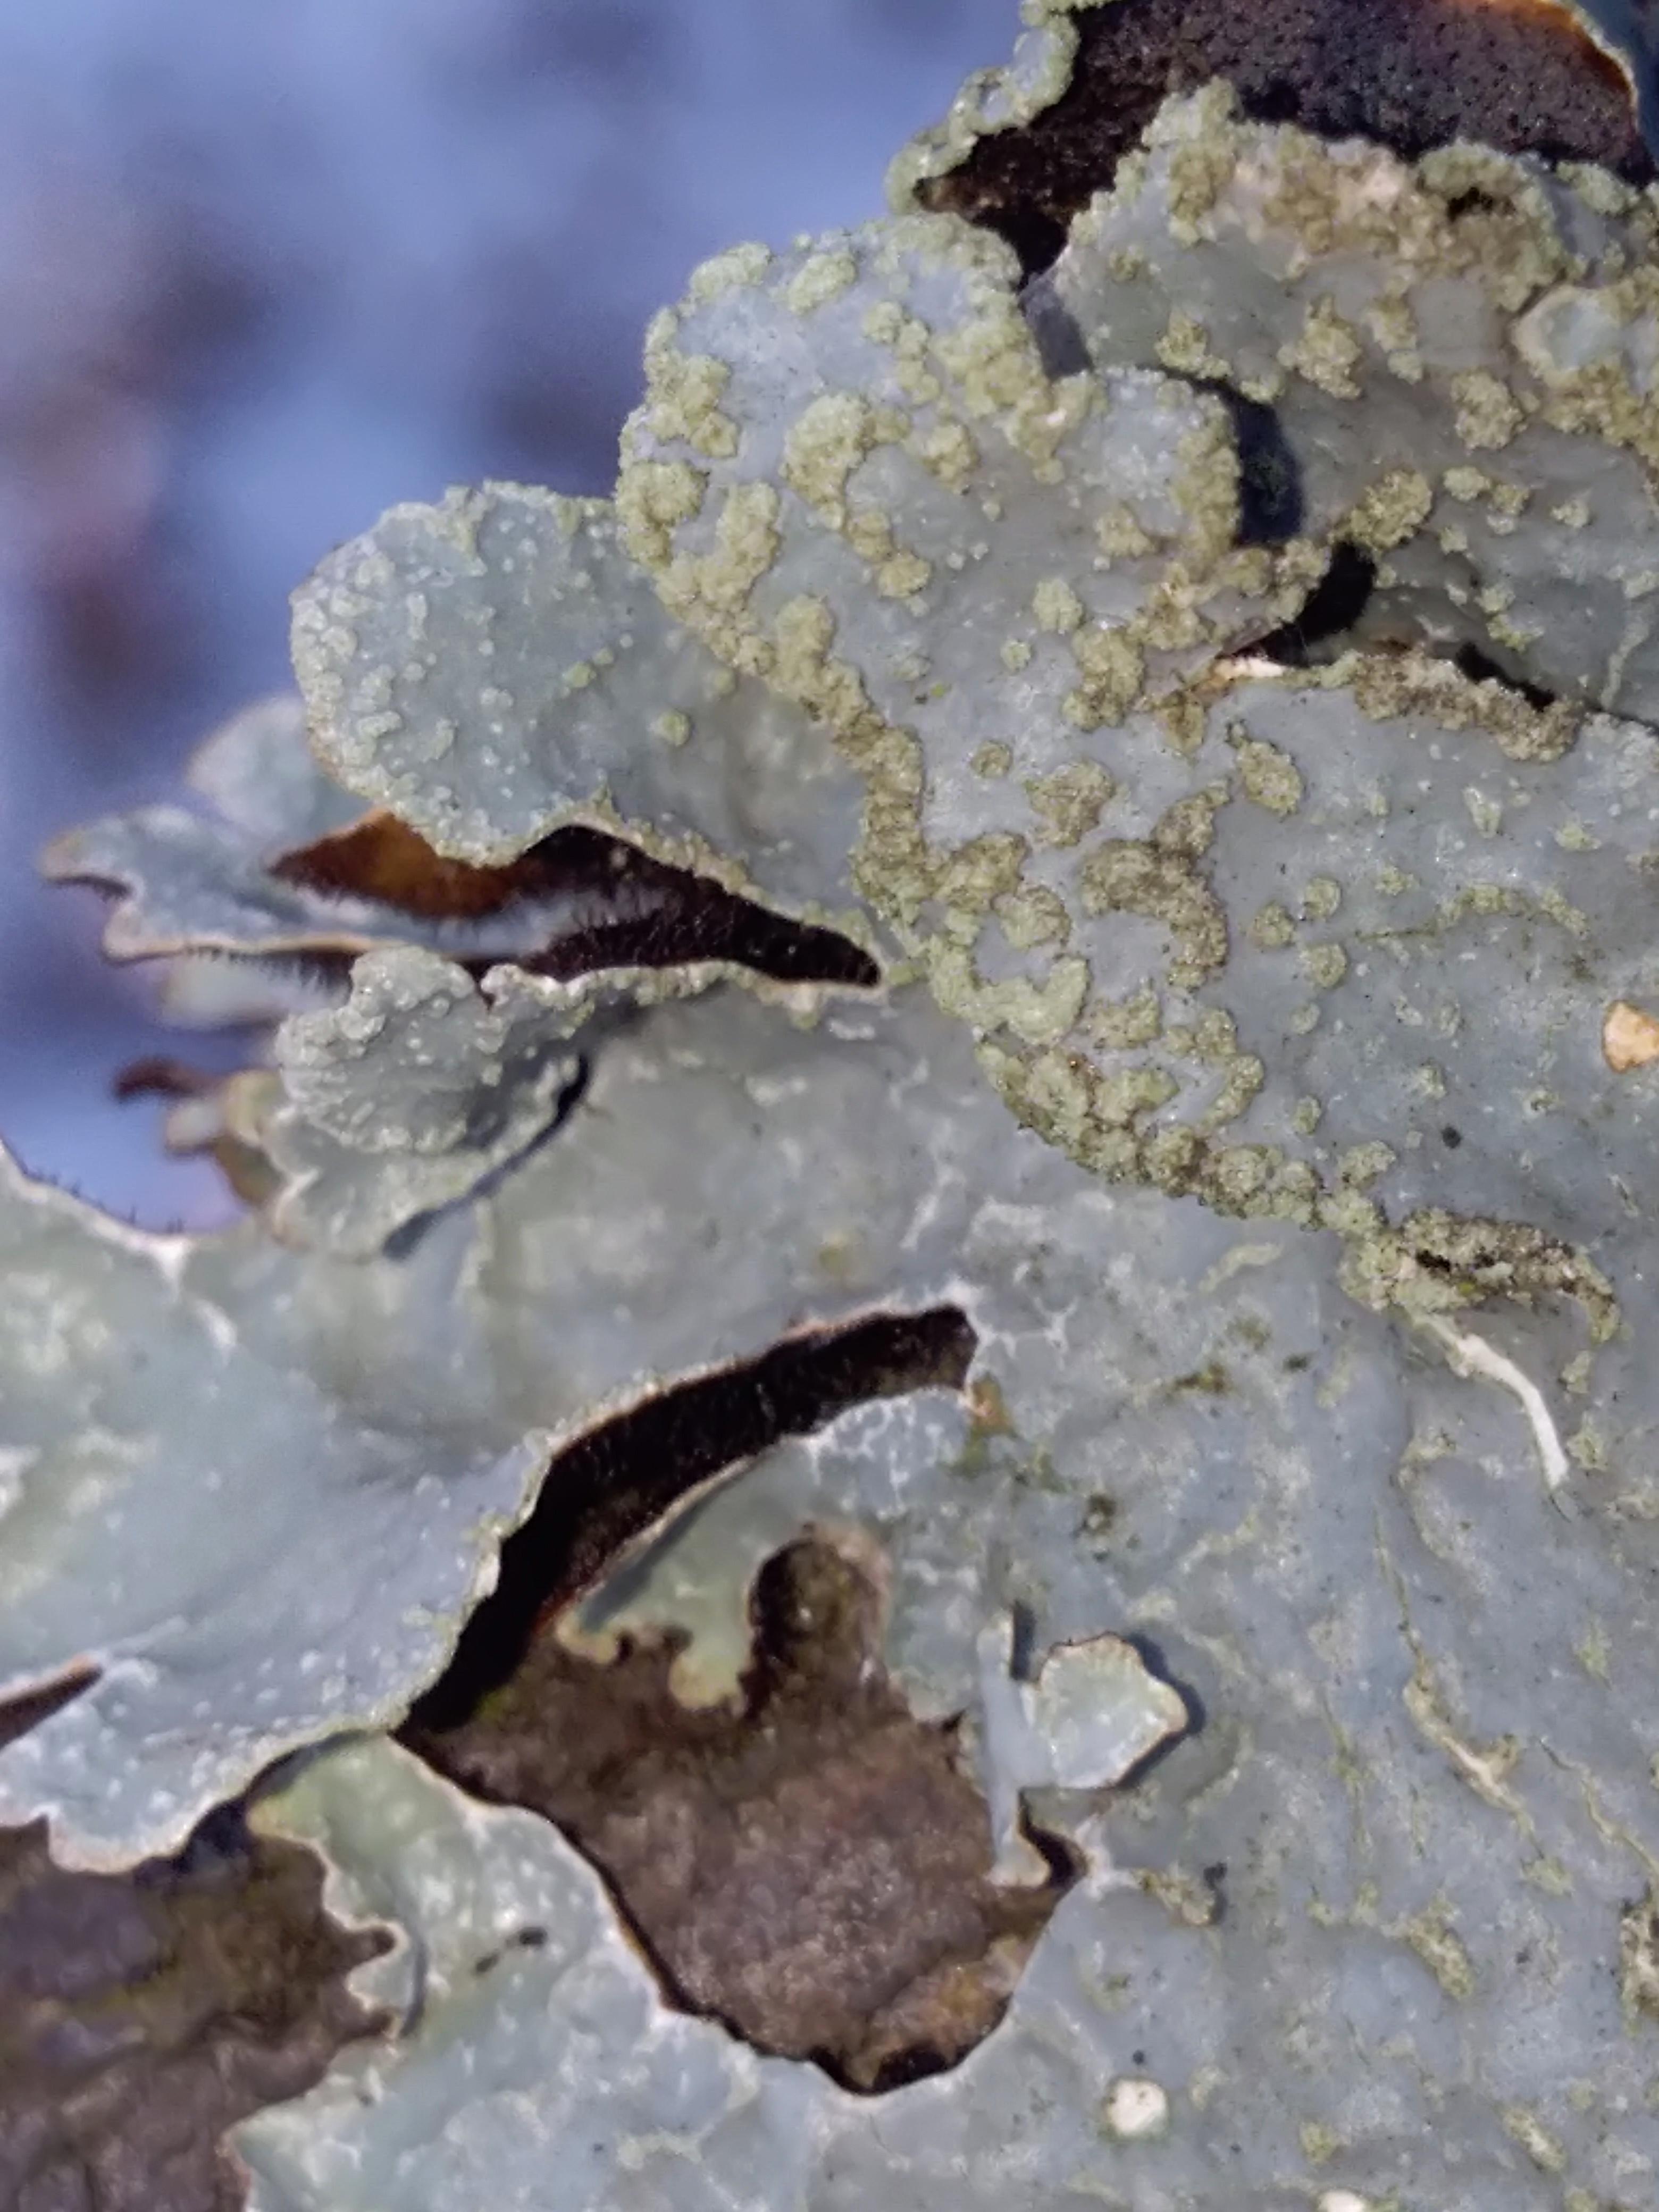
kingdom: Fungi
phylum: Ascomycota
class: Lecanoromycetes
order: Lecanorales
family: Parmeliaceae
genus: Parmelia
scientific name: Parmelia sulcata
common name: rynket skållav
